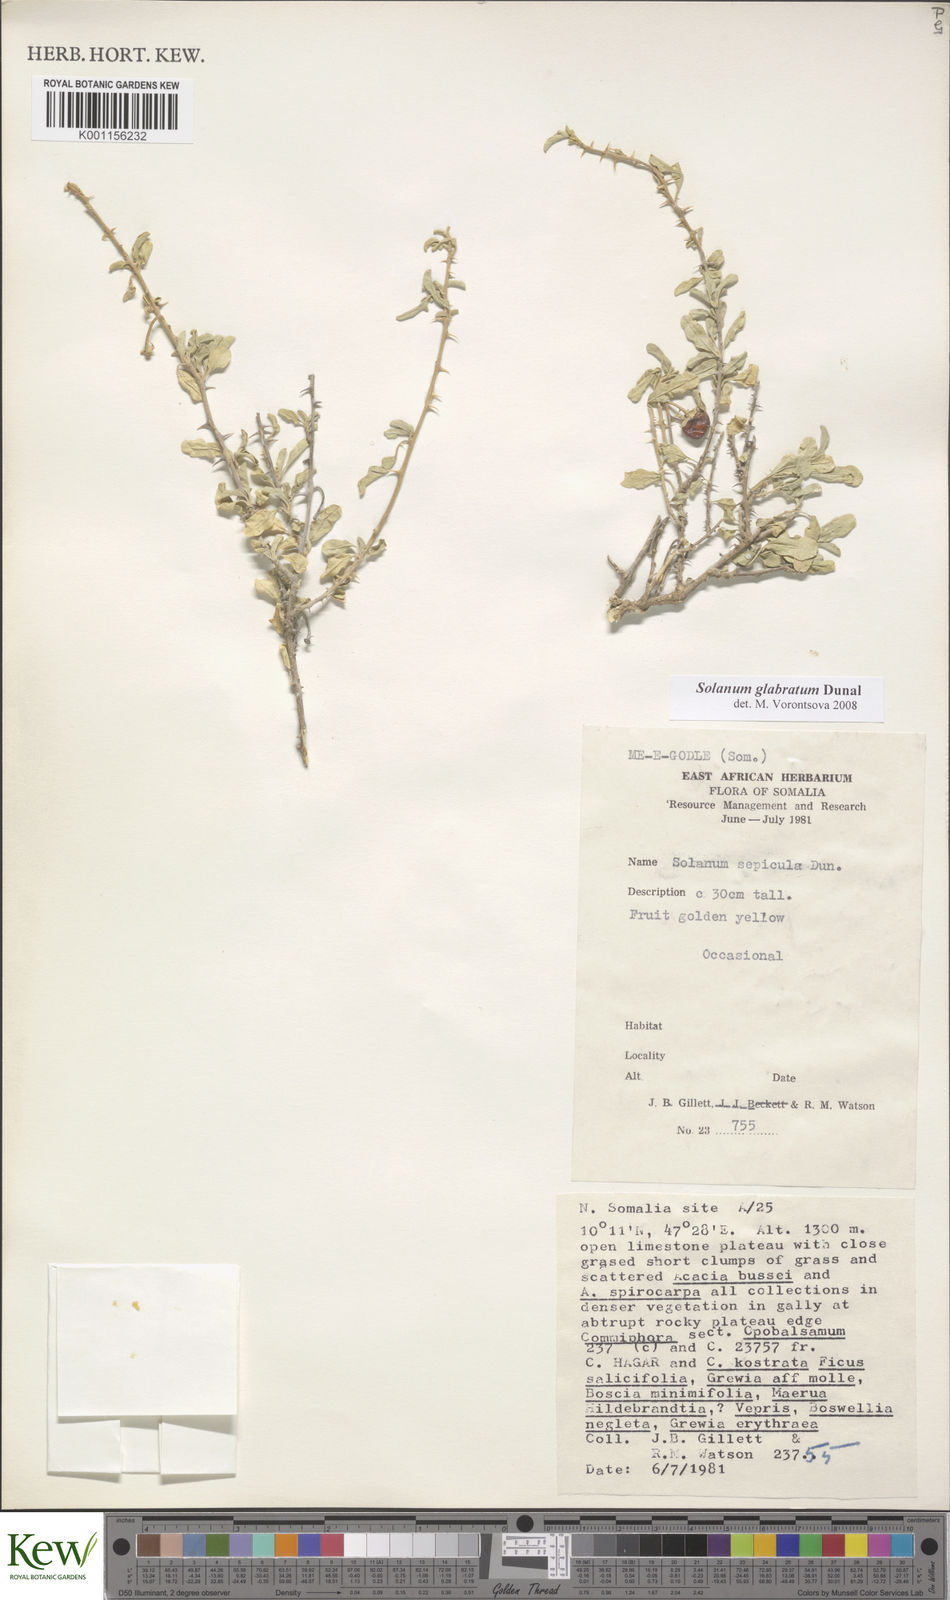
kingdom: Plantae
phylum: Tracheophyta
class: Magnoliopsida
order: Solanales
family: Solanaceae
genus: Solanum
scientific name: Solanum glabratum
